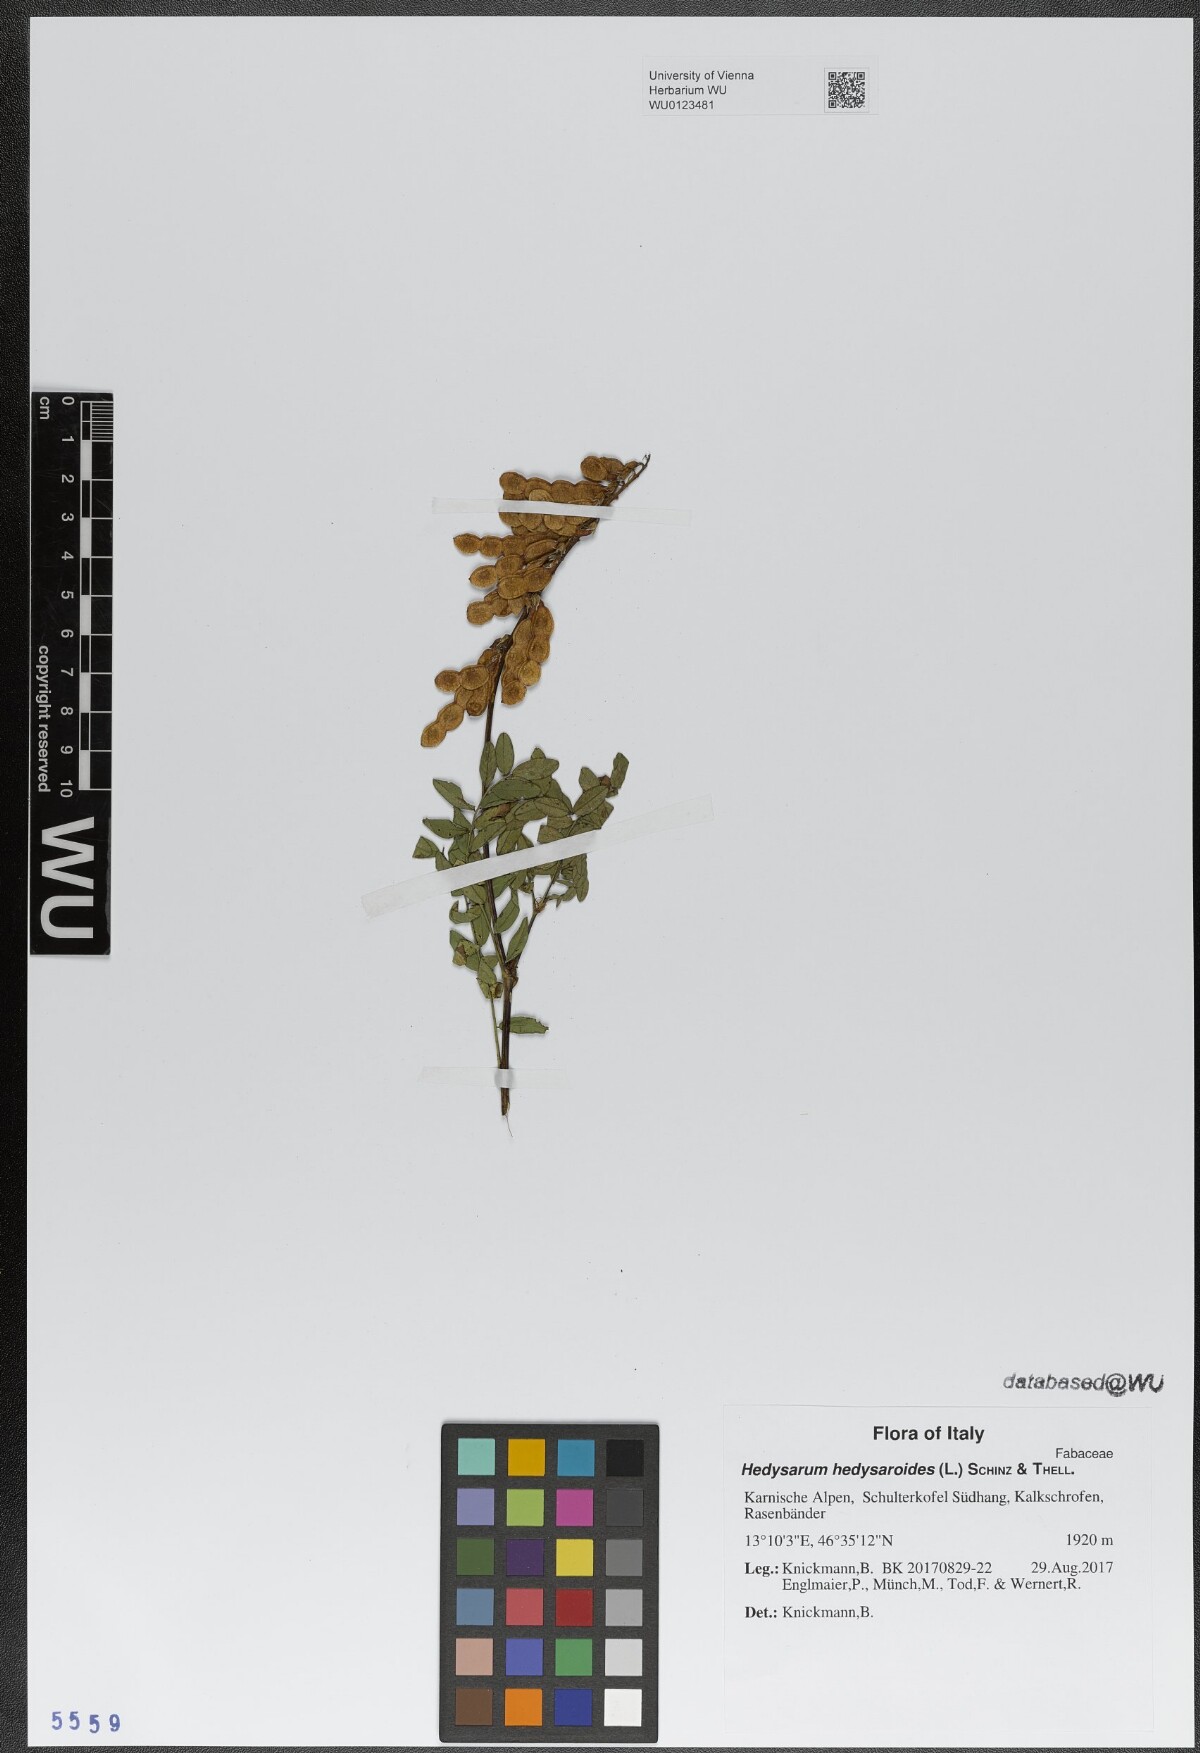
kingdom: Plantae
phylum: Tracheophyta
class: Magnoliopsida
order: Fabales
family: Fabaceae
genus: Hedysarum
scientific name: Hedysarum hedysaroides
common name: Alpine french-honeysuckle
